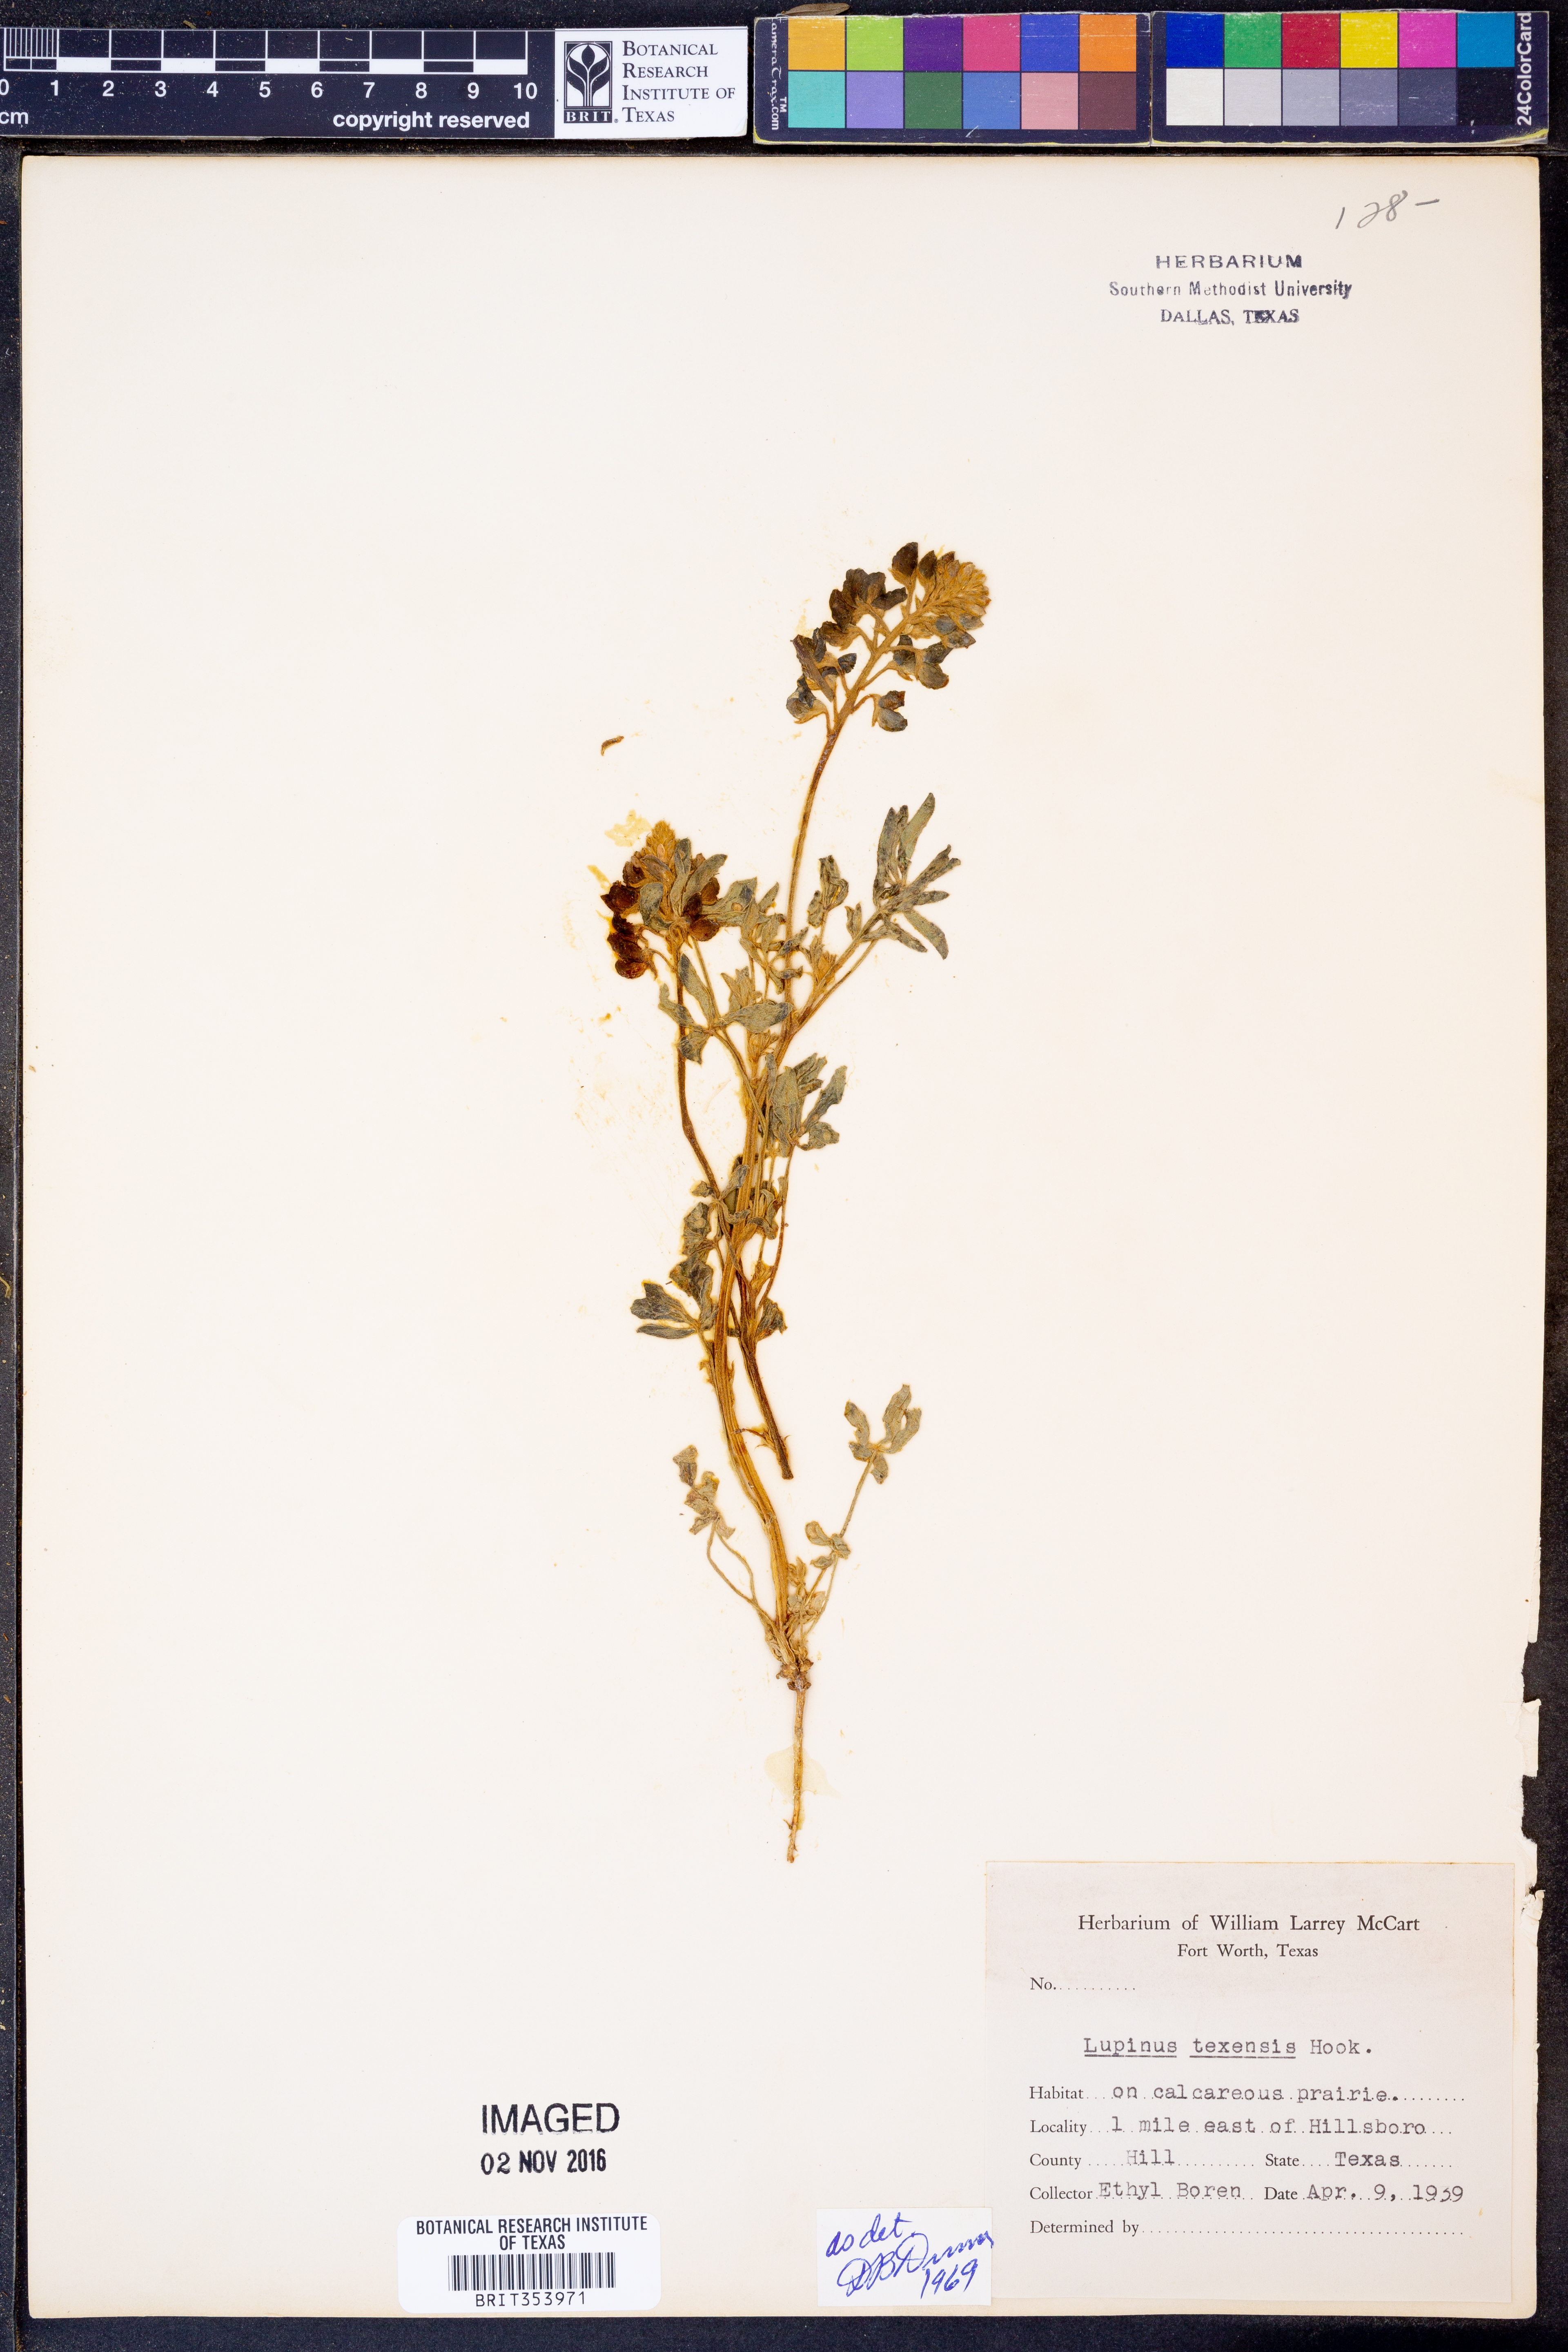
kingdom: Plantae
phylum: Tracheophyta
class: Magnoliopsida
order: Fabales
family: Fabaceae
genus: Lupinus
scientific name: Lupinus texensis
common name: Texas bluebonnet
